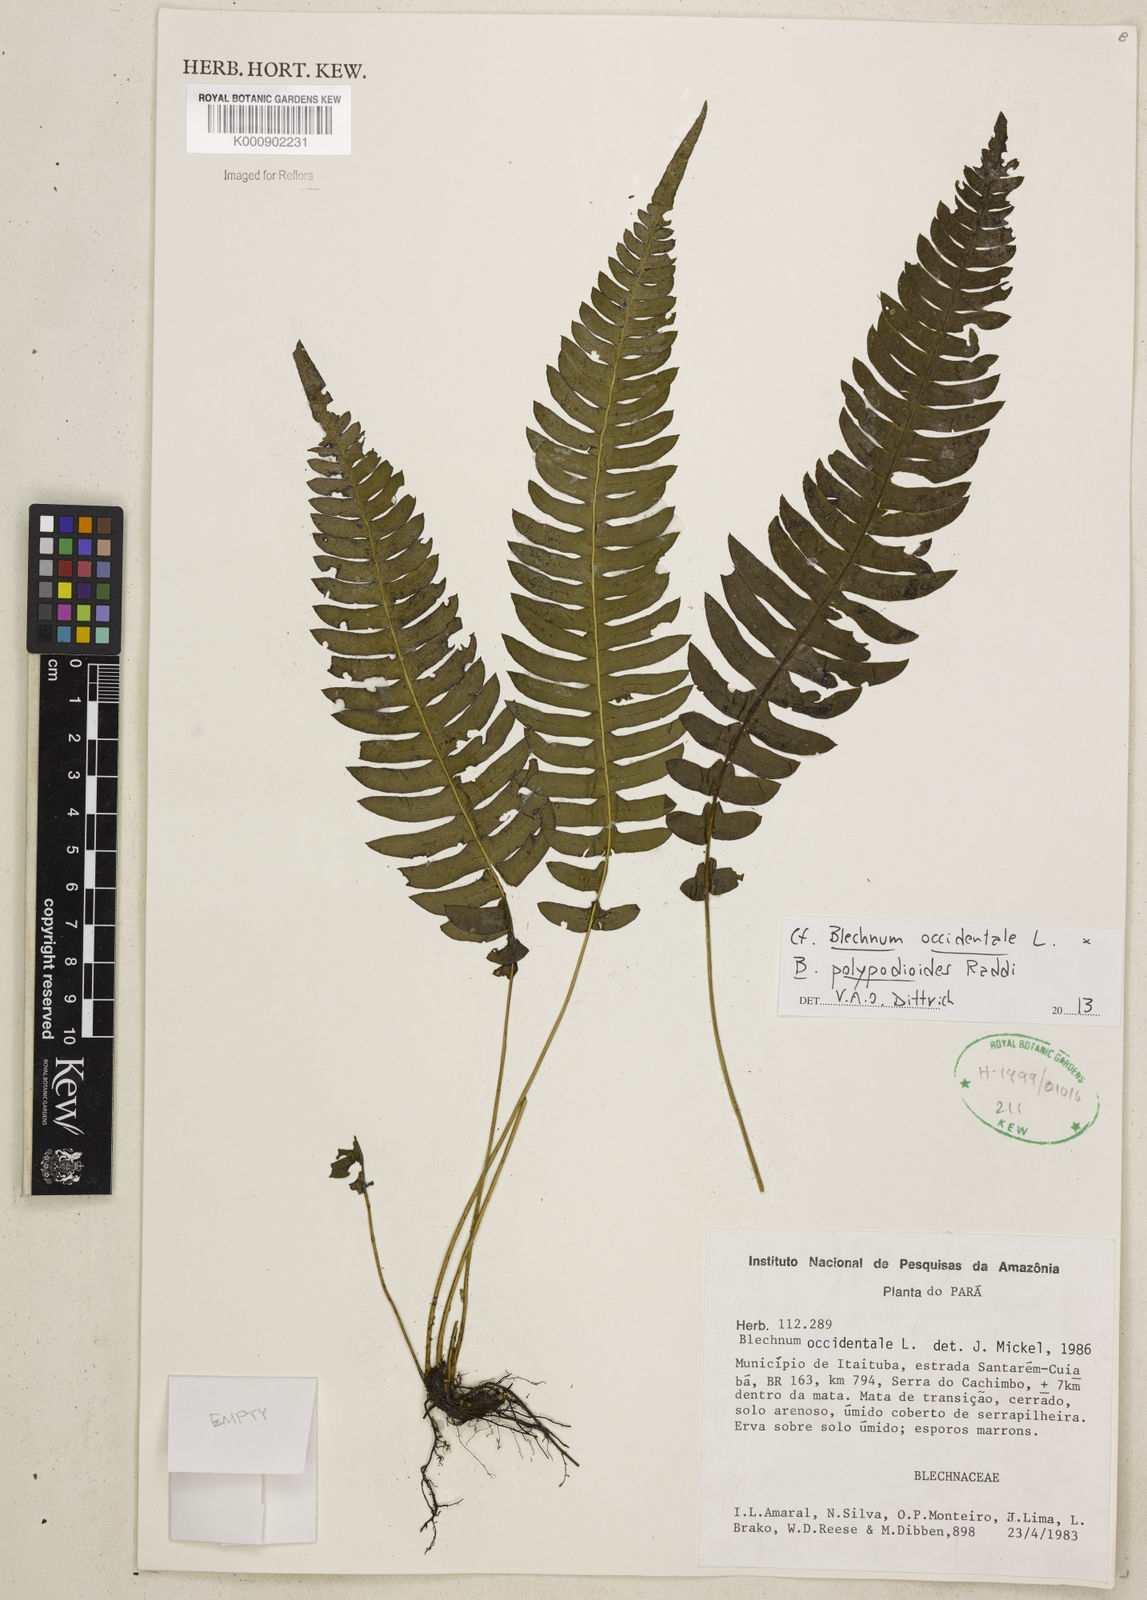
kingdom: Plantae
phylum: Tracheophyta
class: Polypodiopsida
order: Polypodiales
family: Blechnaceae
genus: Blechnum
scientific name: Blechnum occidentale
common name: Hammock fern
